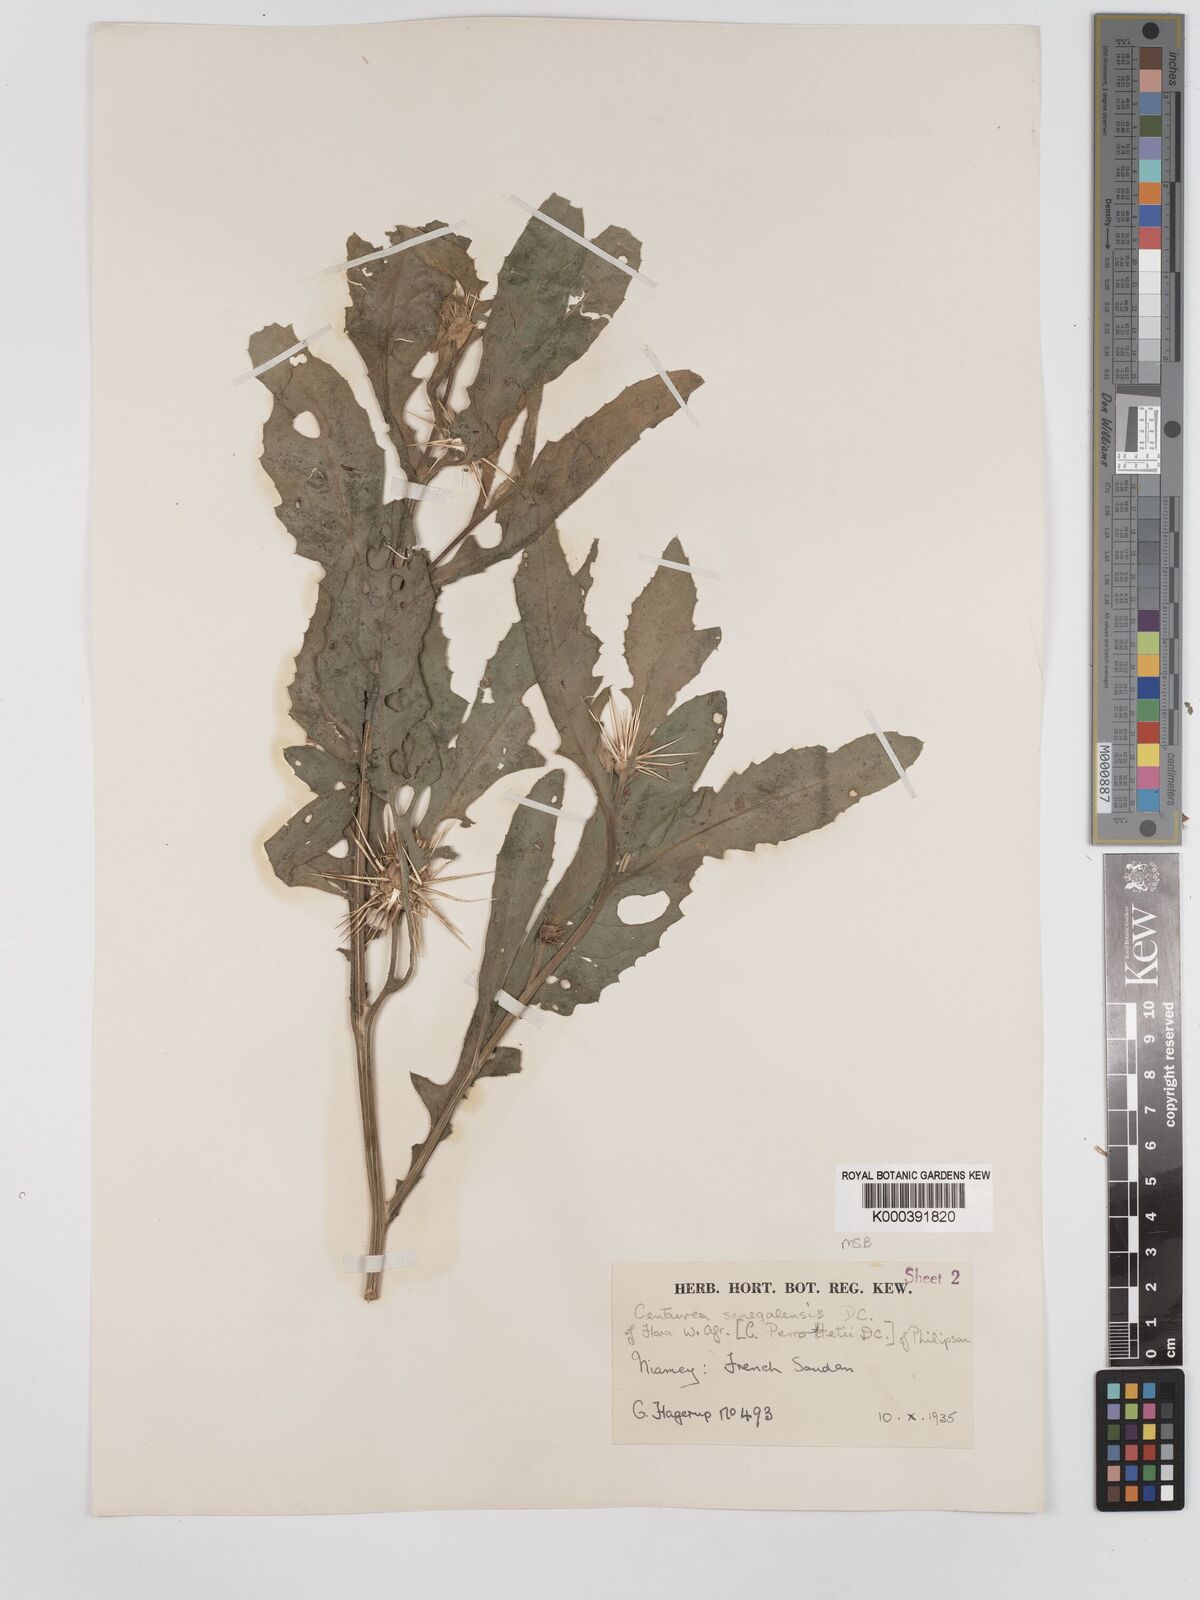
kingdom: Plantae
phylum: Tracheophyta
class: Magnoliopsida
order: Asterales
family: Asteraceae
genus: Centaurea
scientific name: Centaurea senegalensis
